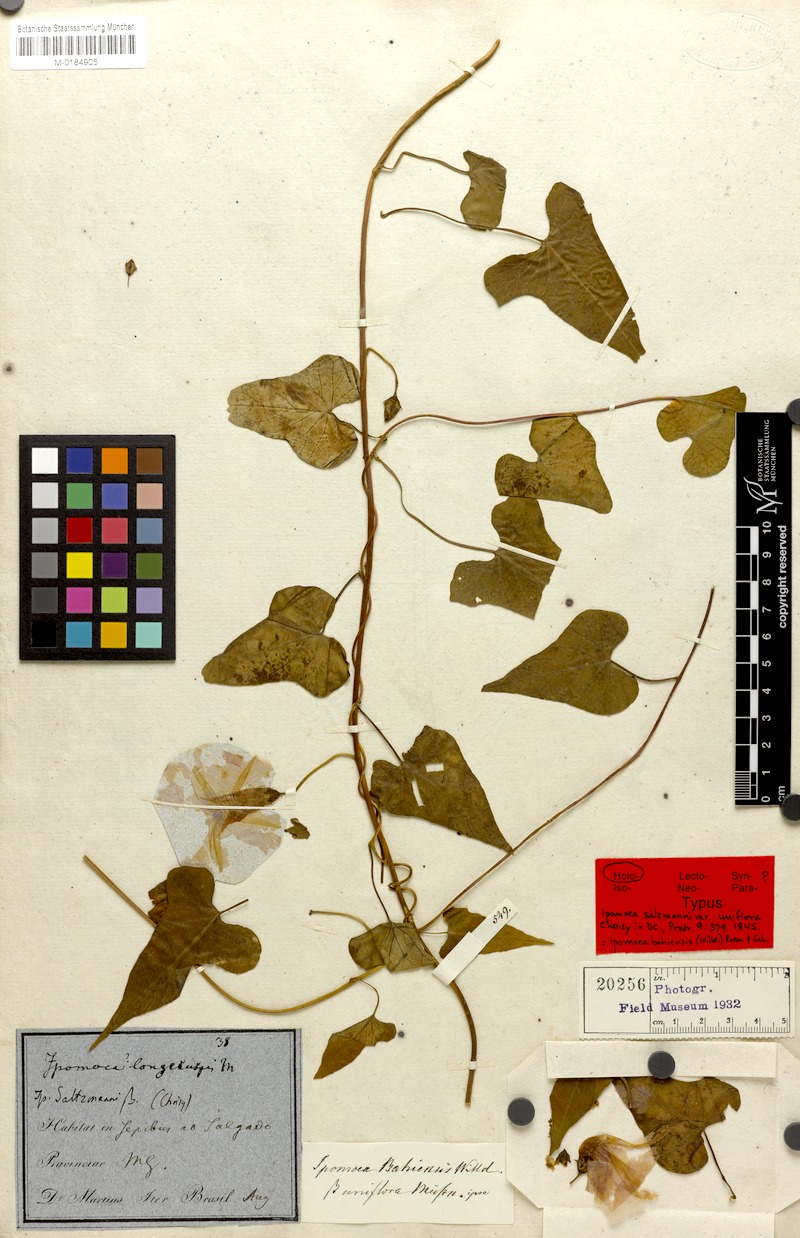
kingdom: Plantae
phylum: Tracheophyta
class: Magnoliopsida
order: Solanales
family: Convolvulaceae
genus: Ipomoea
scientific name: Ipomoea bahiensis
